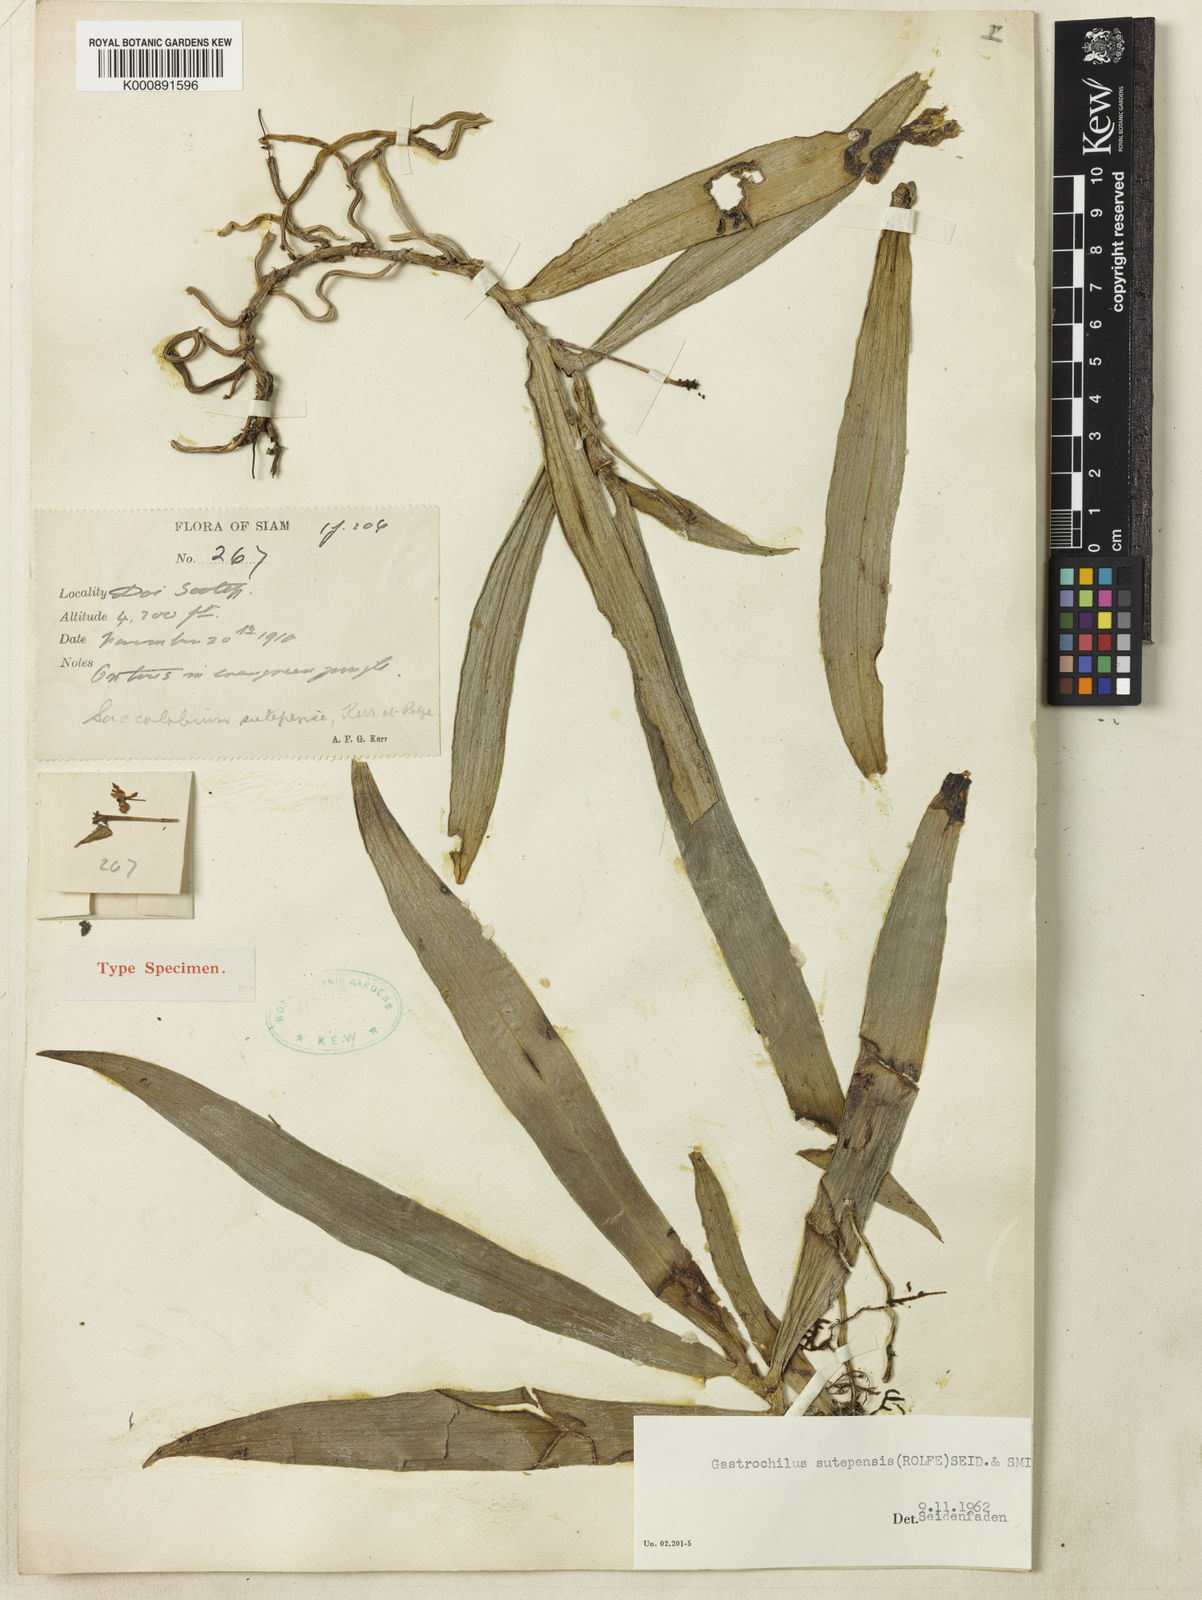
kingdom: Plantae
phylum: Tracheophyta
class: Liliopsida
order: Asparagales
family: Orchidaceae
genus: Gastrochilus
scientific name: Gastrochilus sutepensis
